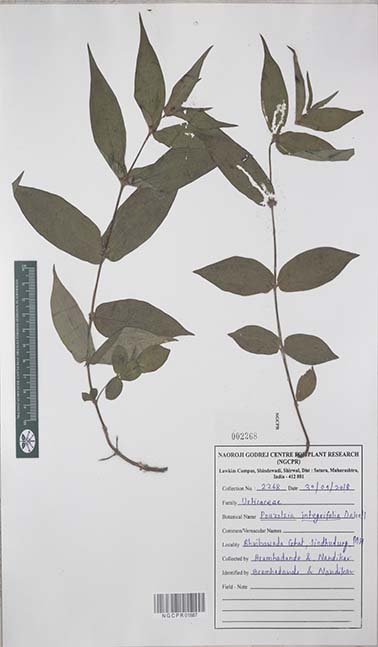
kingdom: Plantae
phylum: Tracheophyta
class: Magnoliopsida
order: Rosales
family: Urticaceae
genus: Gonostegia
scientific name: Gonostegia triandra
